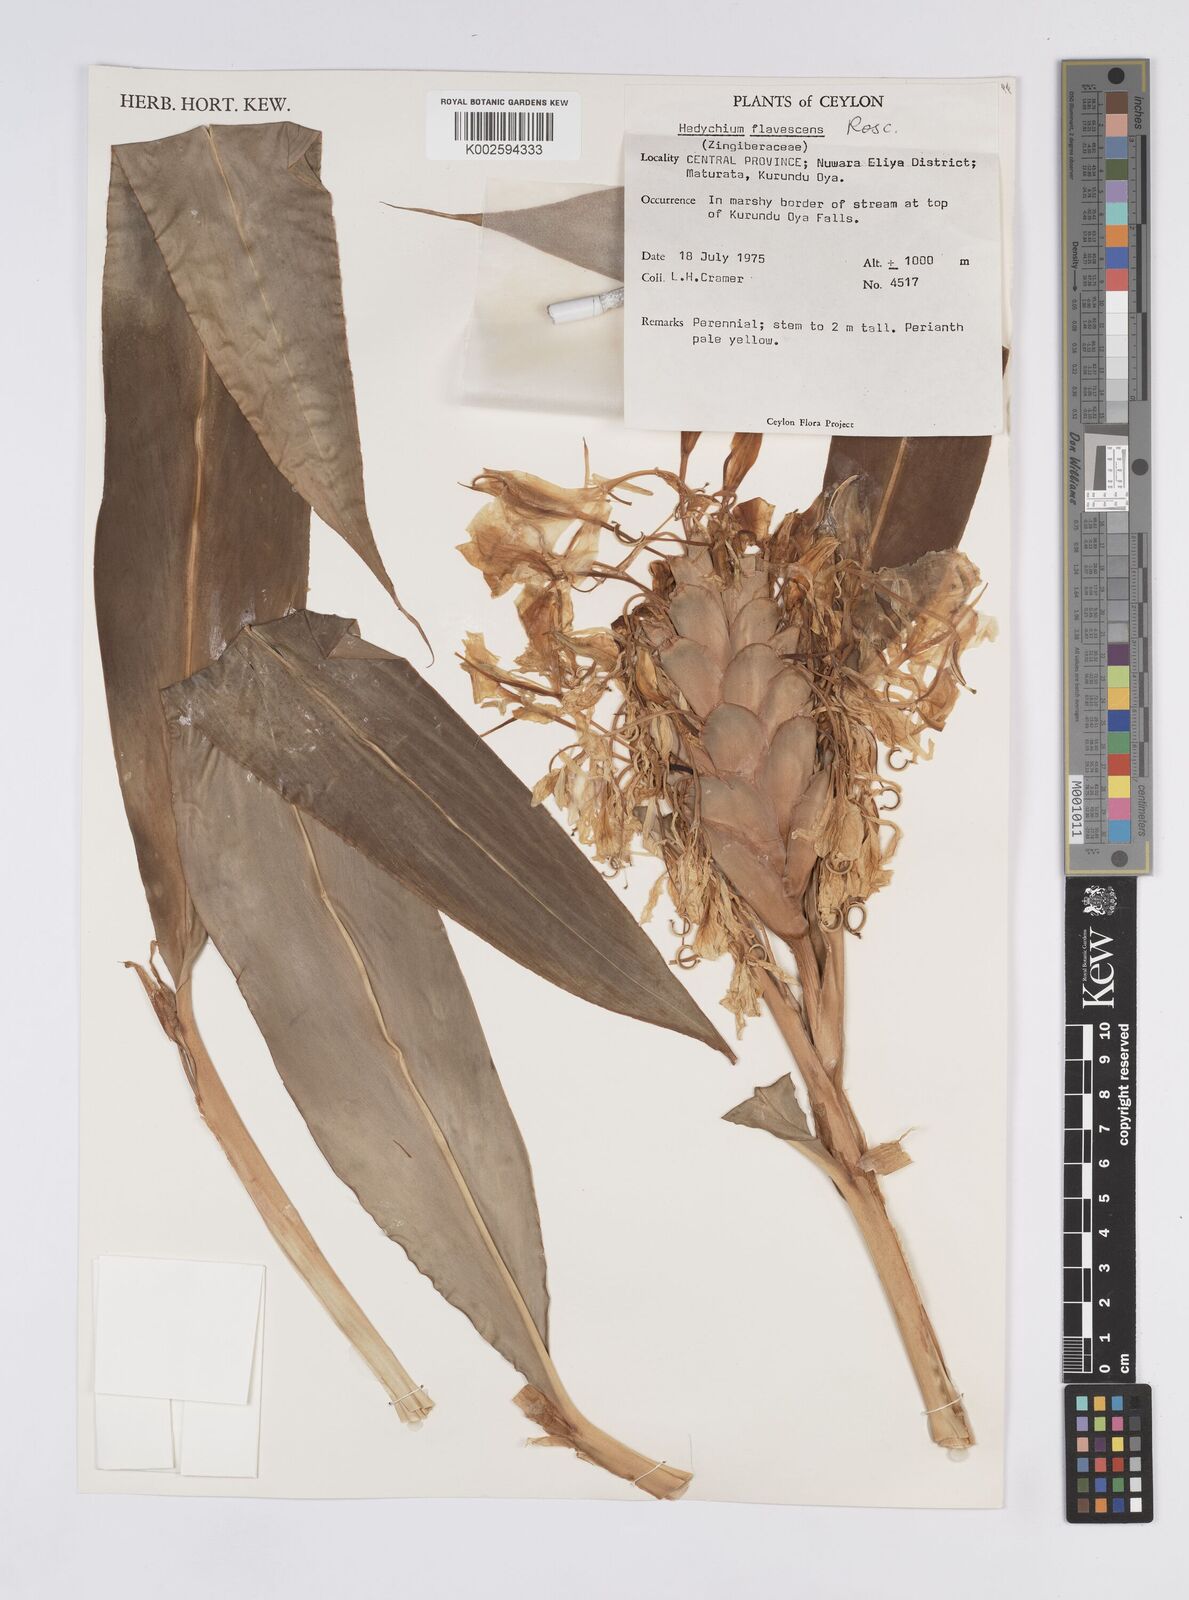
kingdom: Plantae
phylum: Tracheophyta
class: Liliopsida
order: Zingiberales
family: Zingiberaceae
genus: Hedychium
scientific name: Hedychium flavescens
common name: Yellow ginger
